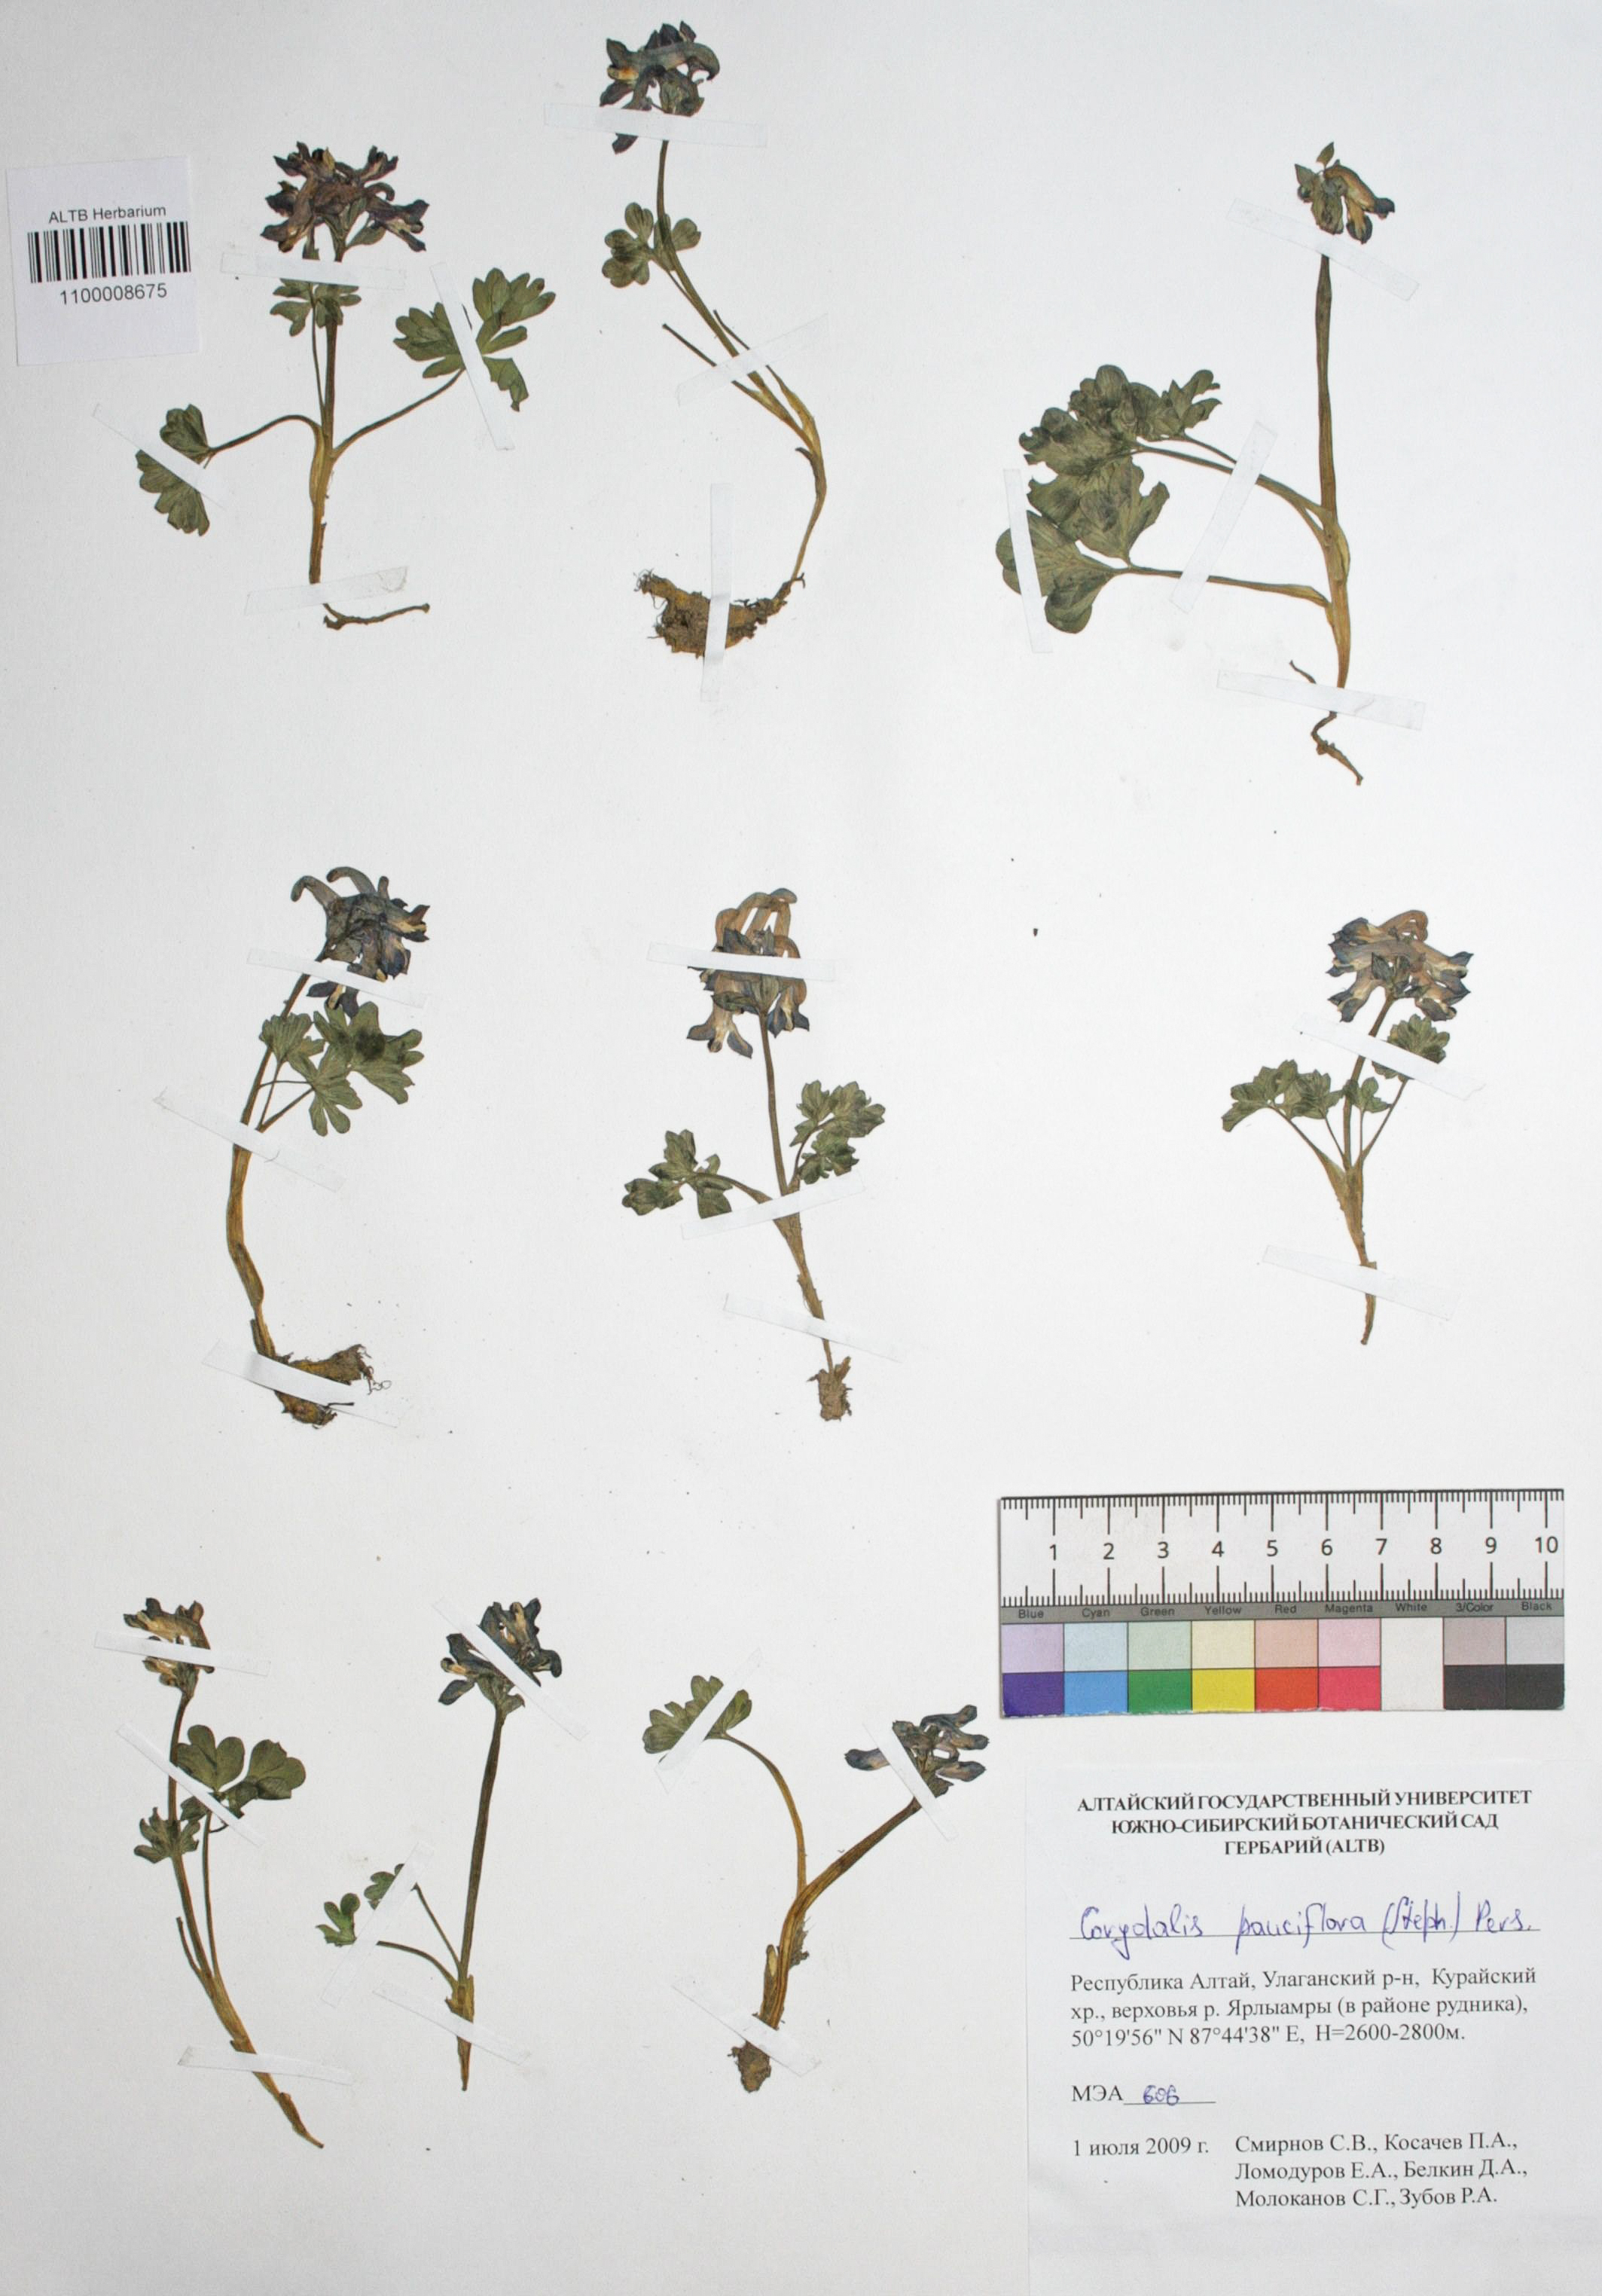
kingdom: Plantae
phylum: Tracheophyta
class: Magnoliopsida
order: Ranunculales
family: Papaveraceae
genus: Corydalis
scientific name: Corydalis pauciflora
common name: Blue corydalis
